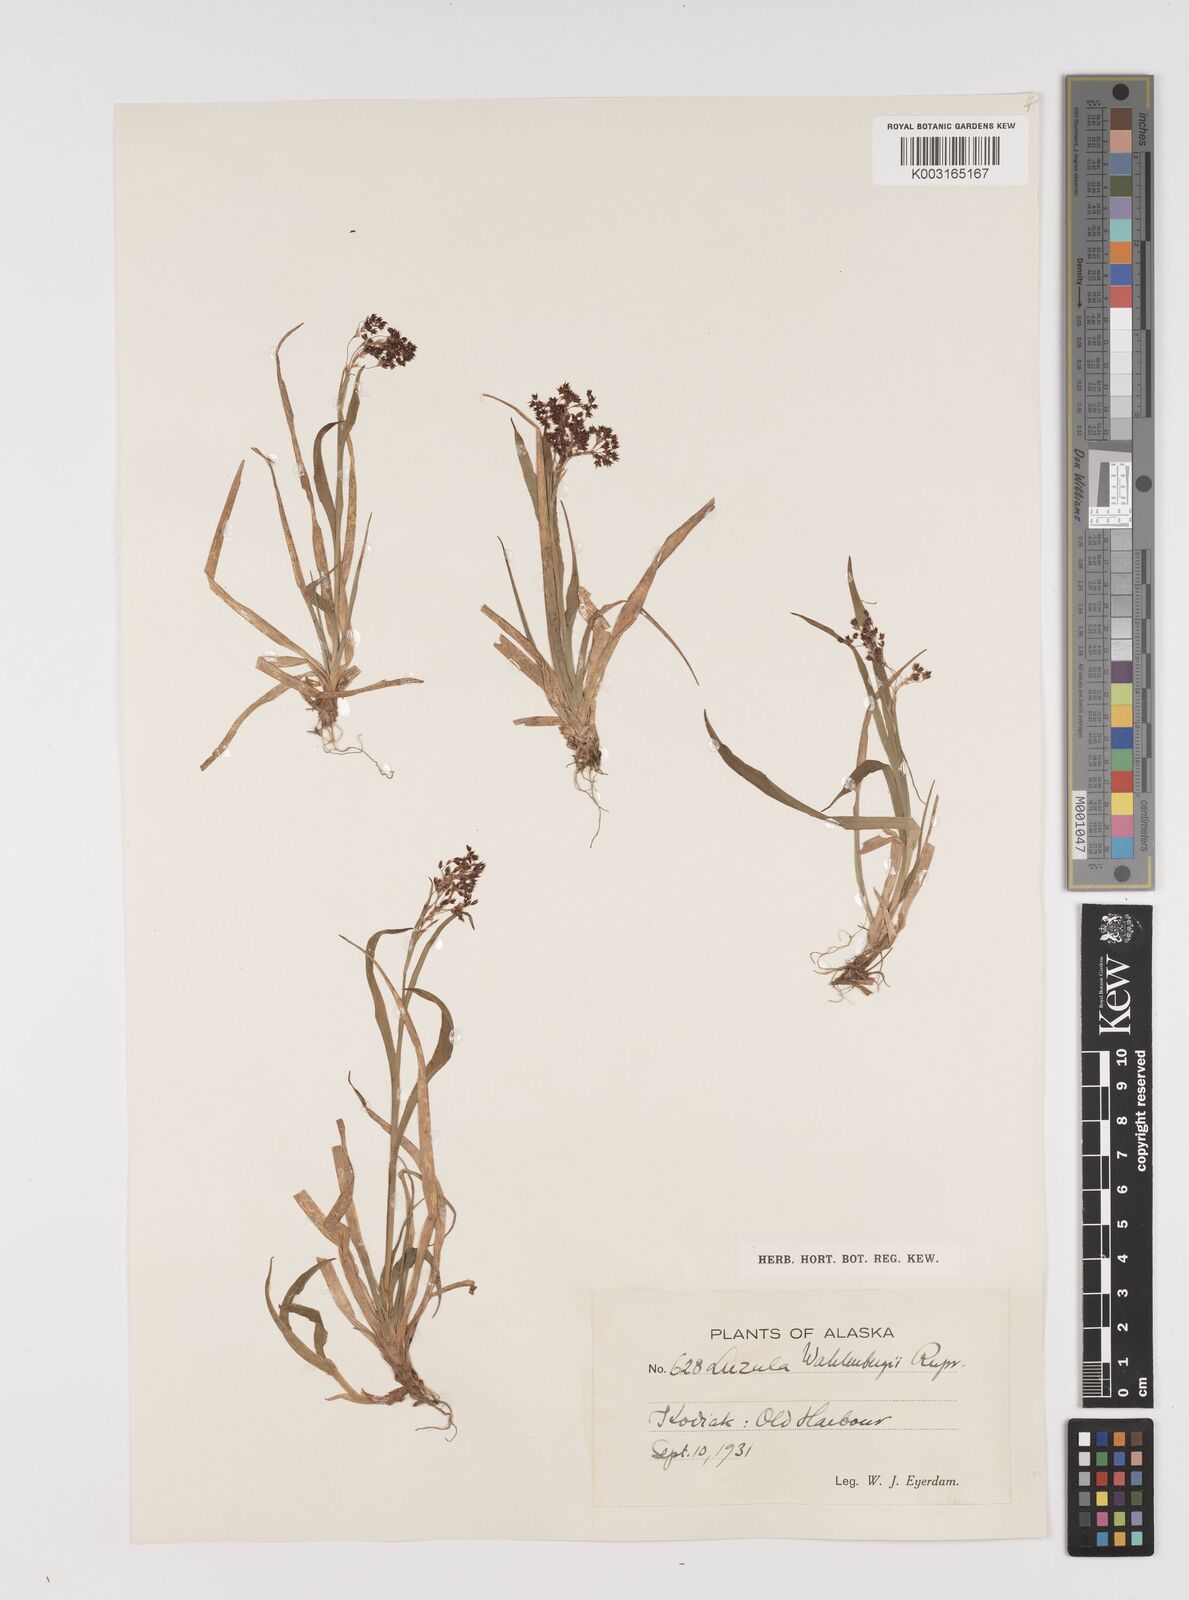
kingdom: Plantae
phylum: Tracheophyta
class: Liliopsida
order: Poales
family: Juncaceae
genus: Luzula
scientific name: Luzula wahlenbergii
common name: Wahlenberg's wood-rush
